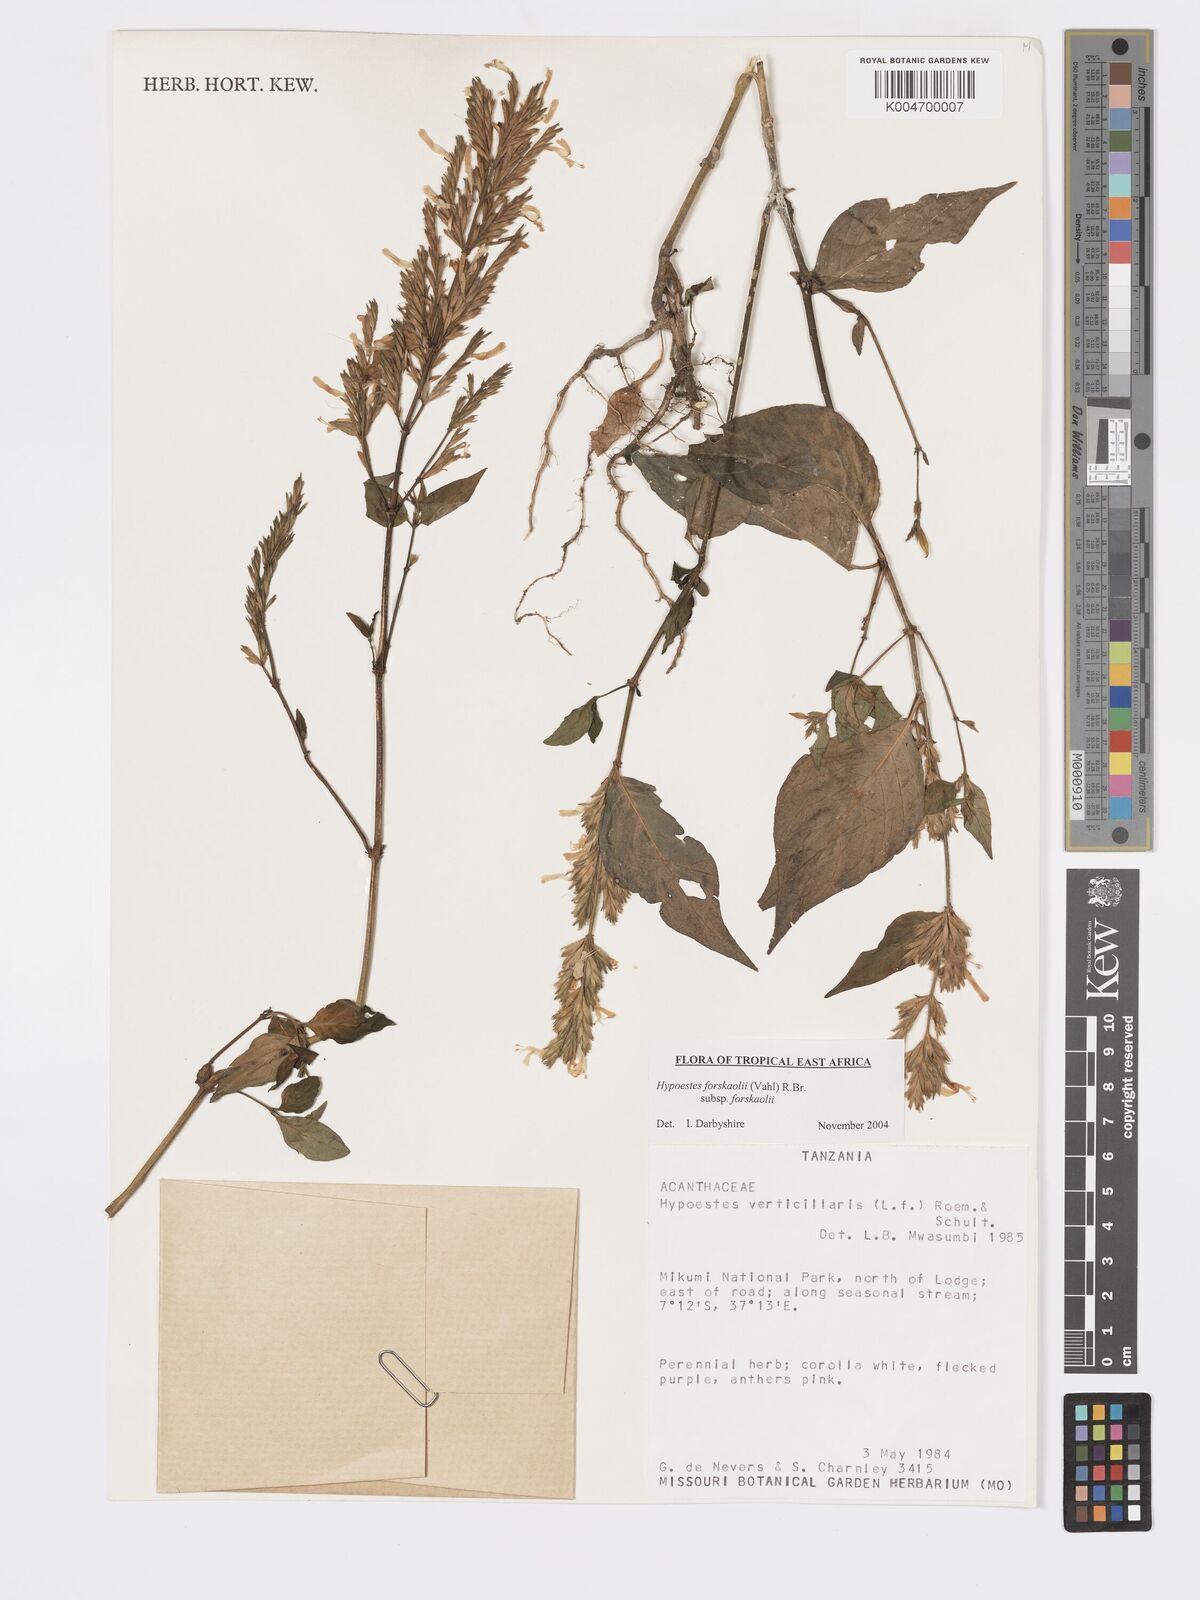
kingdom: Plantae
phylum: Tracheophyta
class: Magnoliopsida
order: Lamiales
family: Acanthaceae
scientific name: Acanthaceae
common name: Acanthaceae
